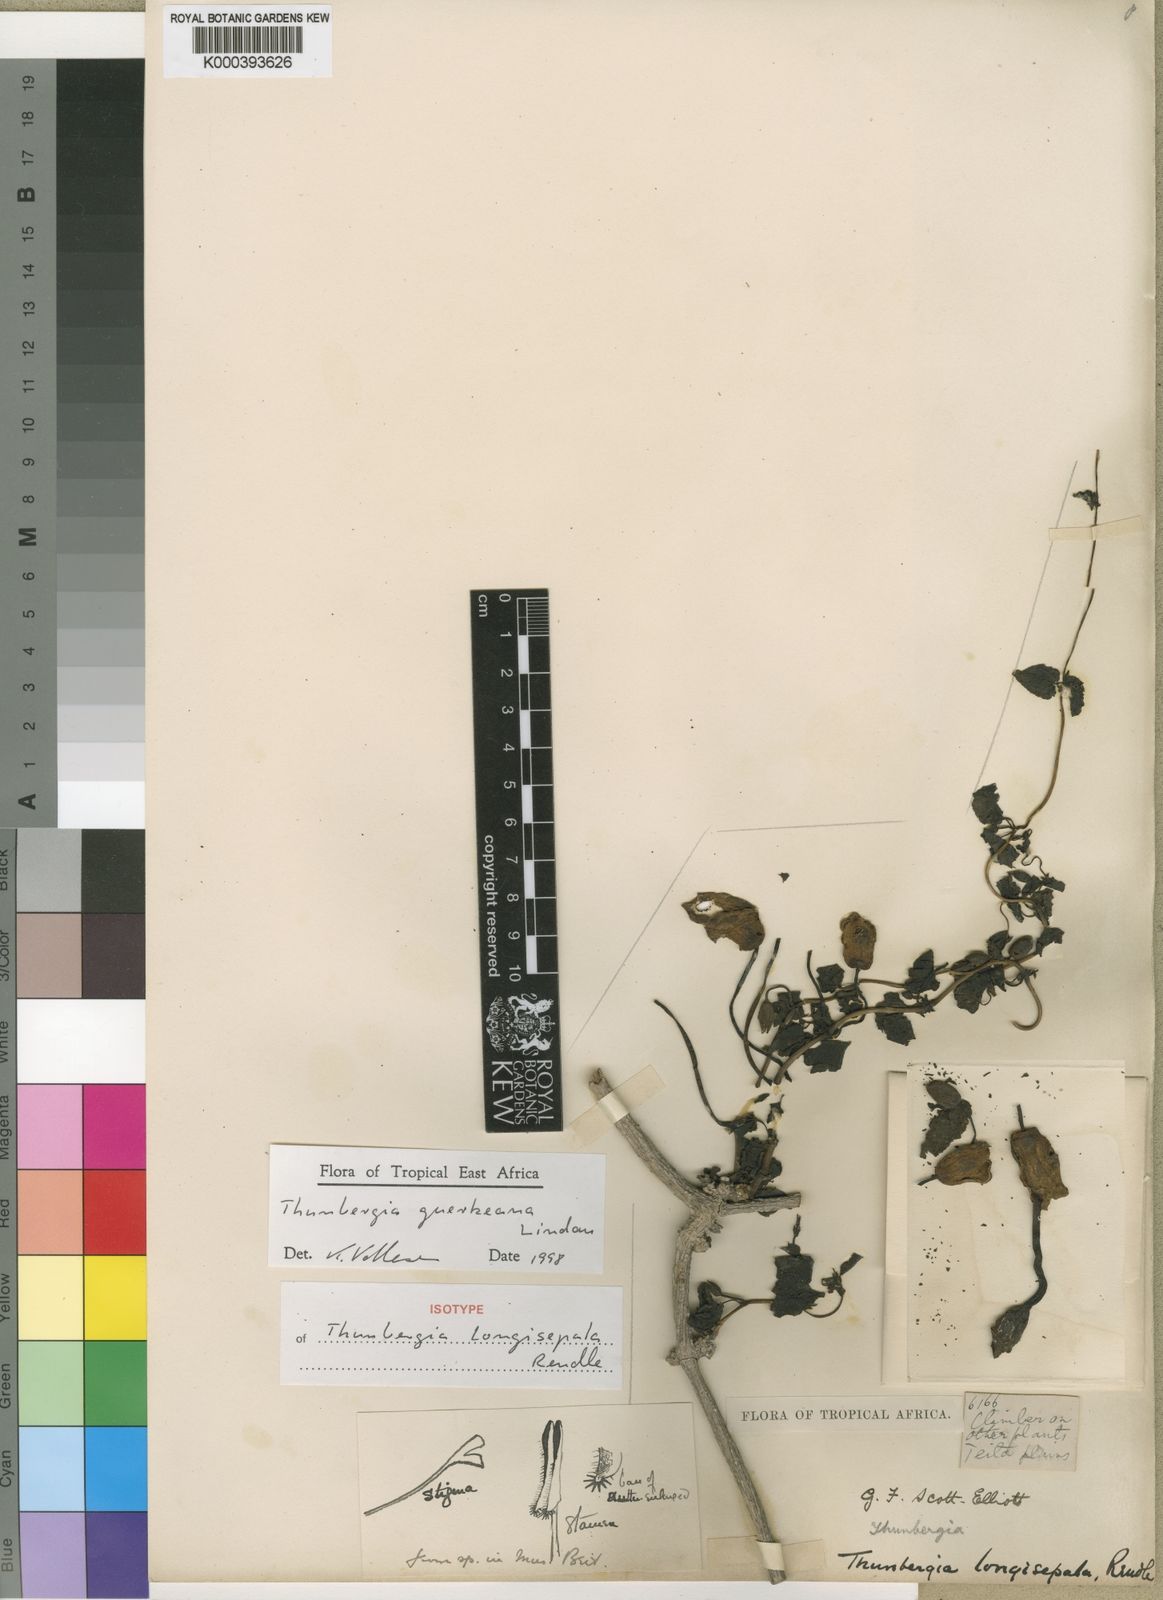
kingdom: Plantae
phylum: Tracheophyta
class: Magnoliopsida
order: Lamiales
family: Acanthaceae
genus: Thunbergia
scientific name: Thunbergia guerkeana
